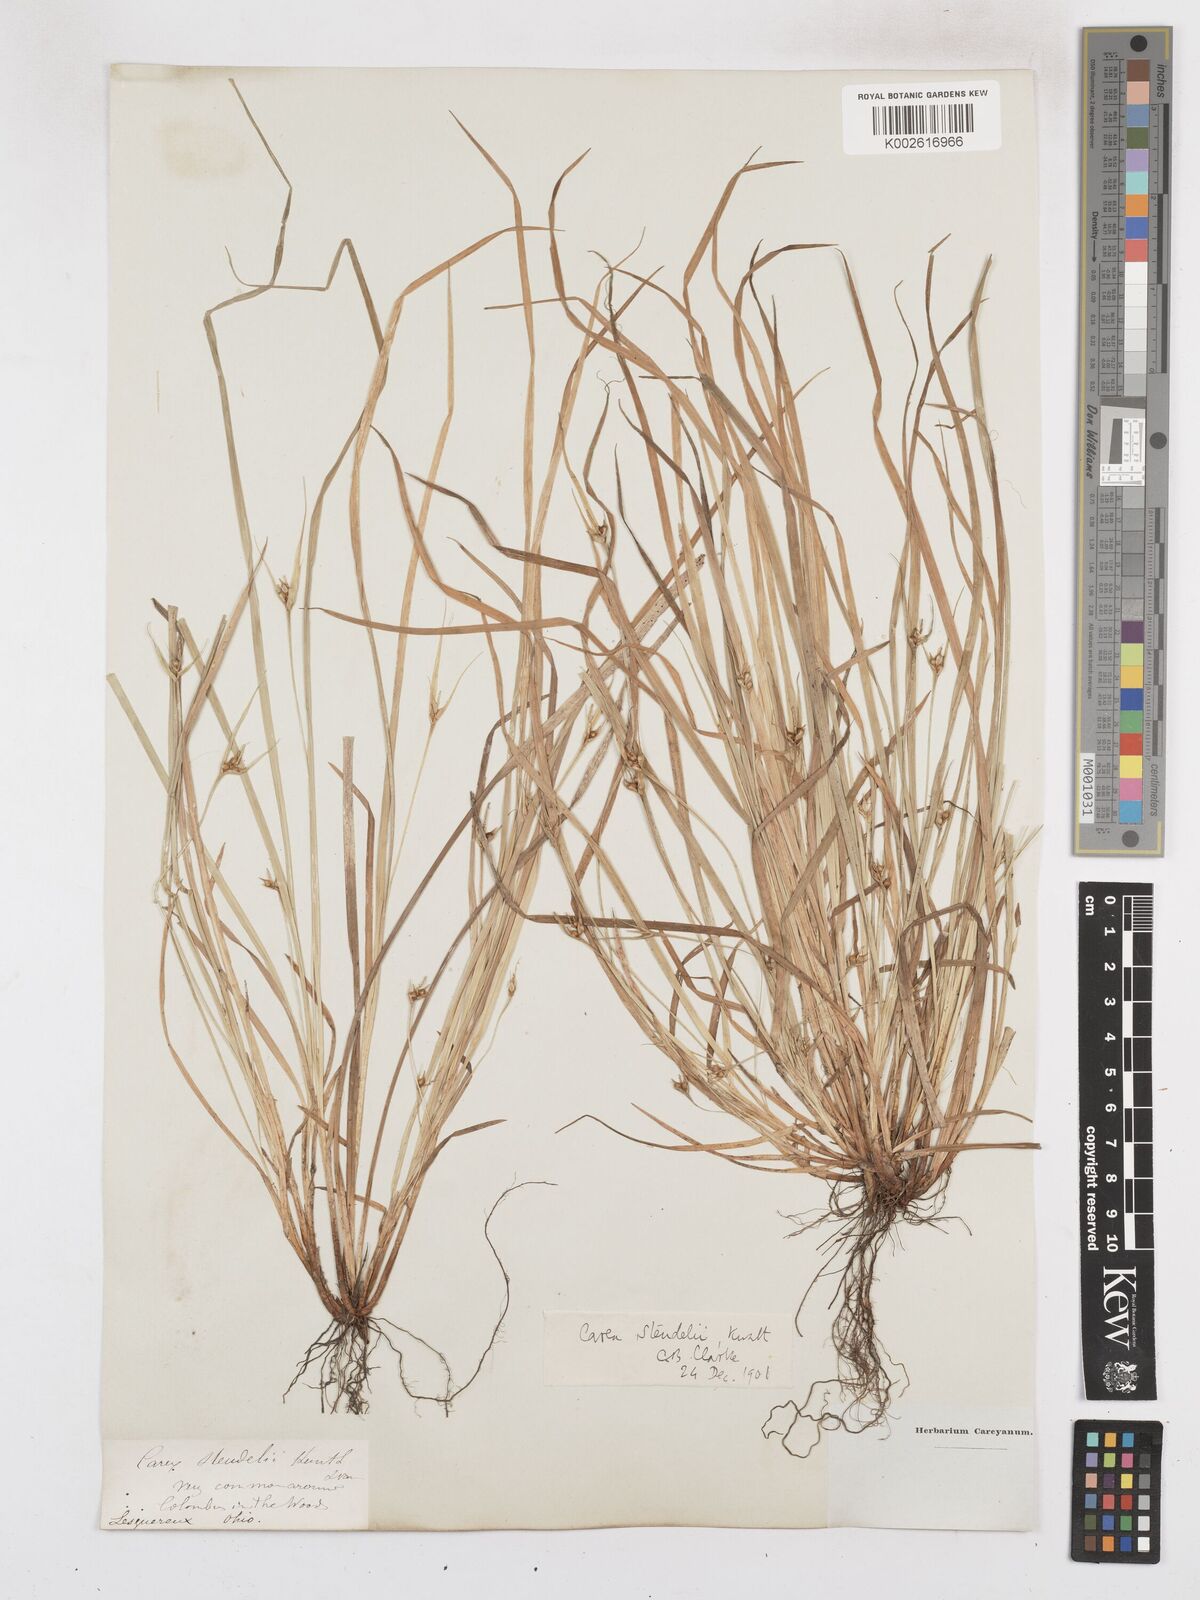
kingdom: Plantae
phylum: Tracheophyta
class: Liliopsida
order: Poales
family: Cyperaceae
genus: Carex
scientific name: Carex jamesii
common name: Grass sedge
